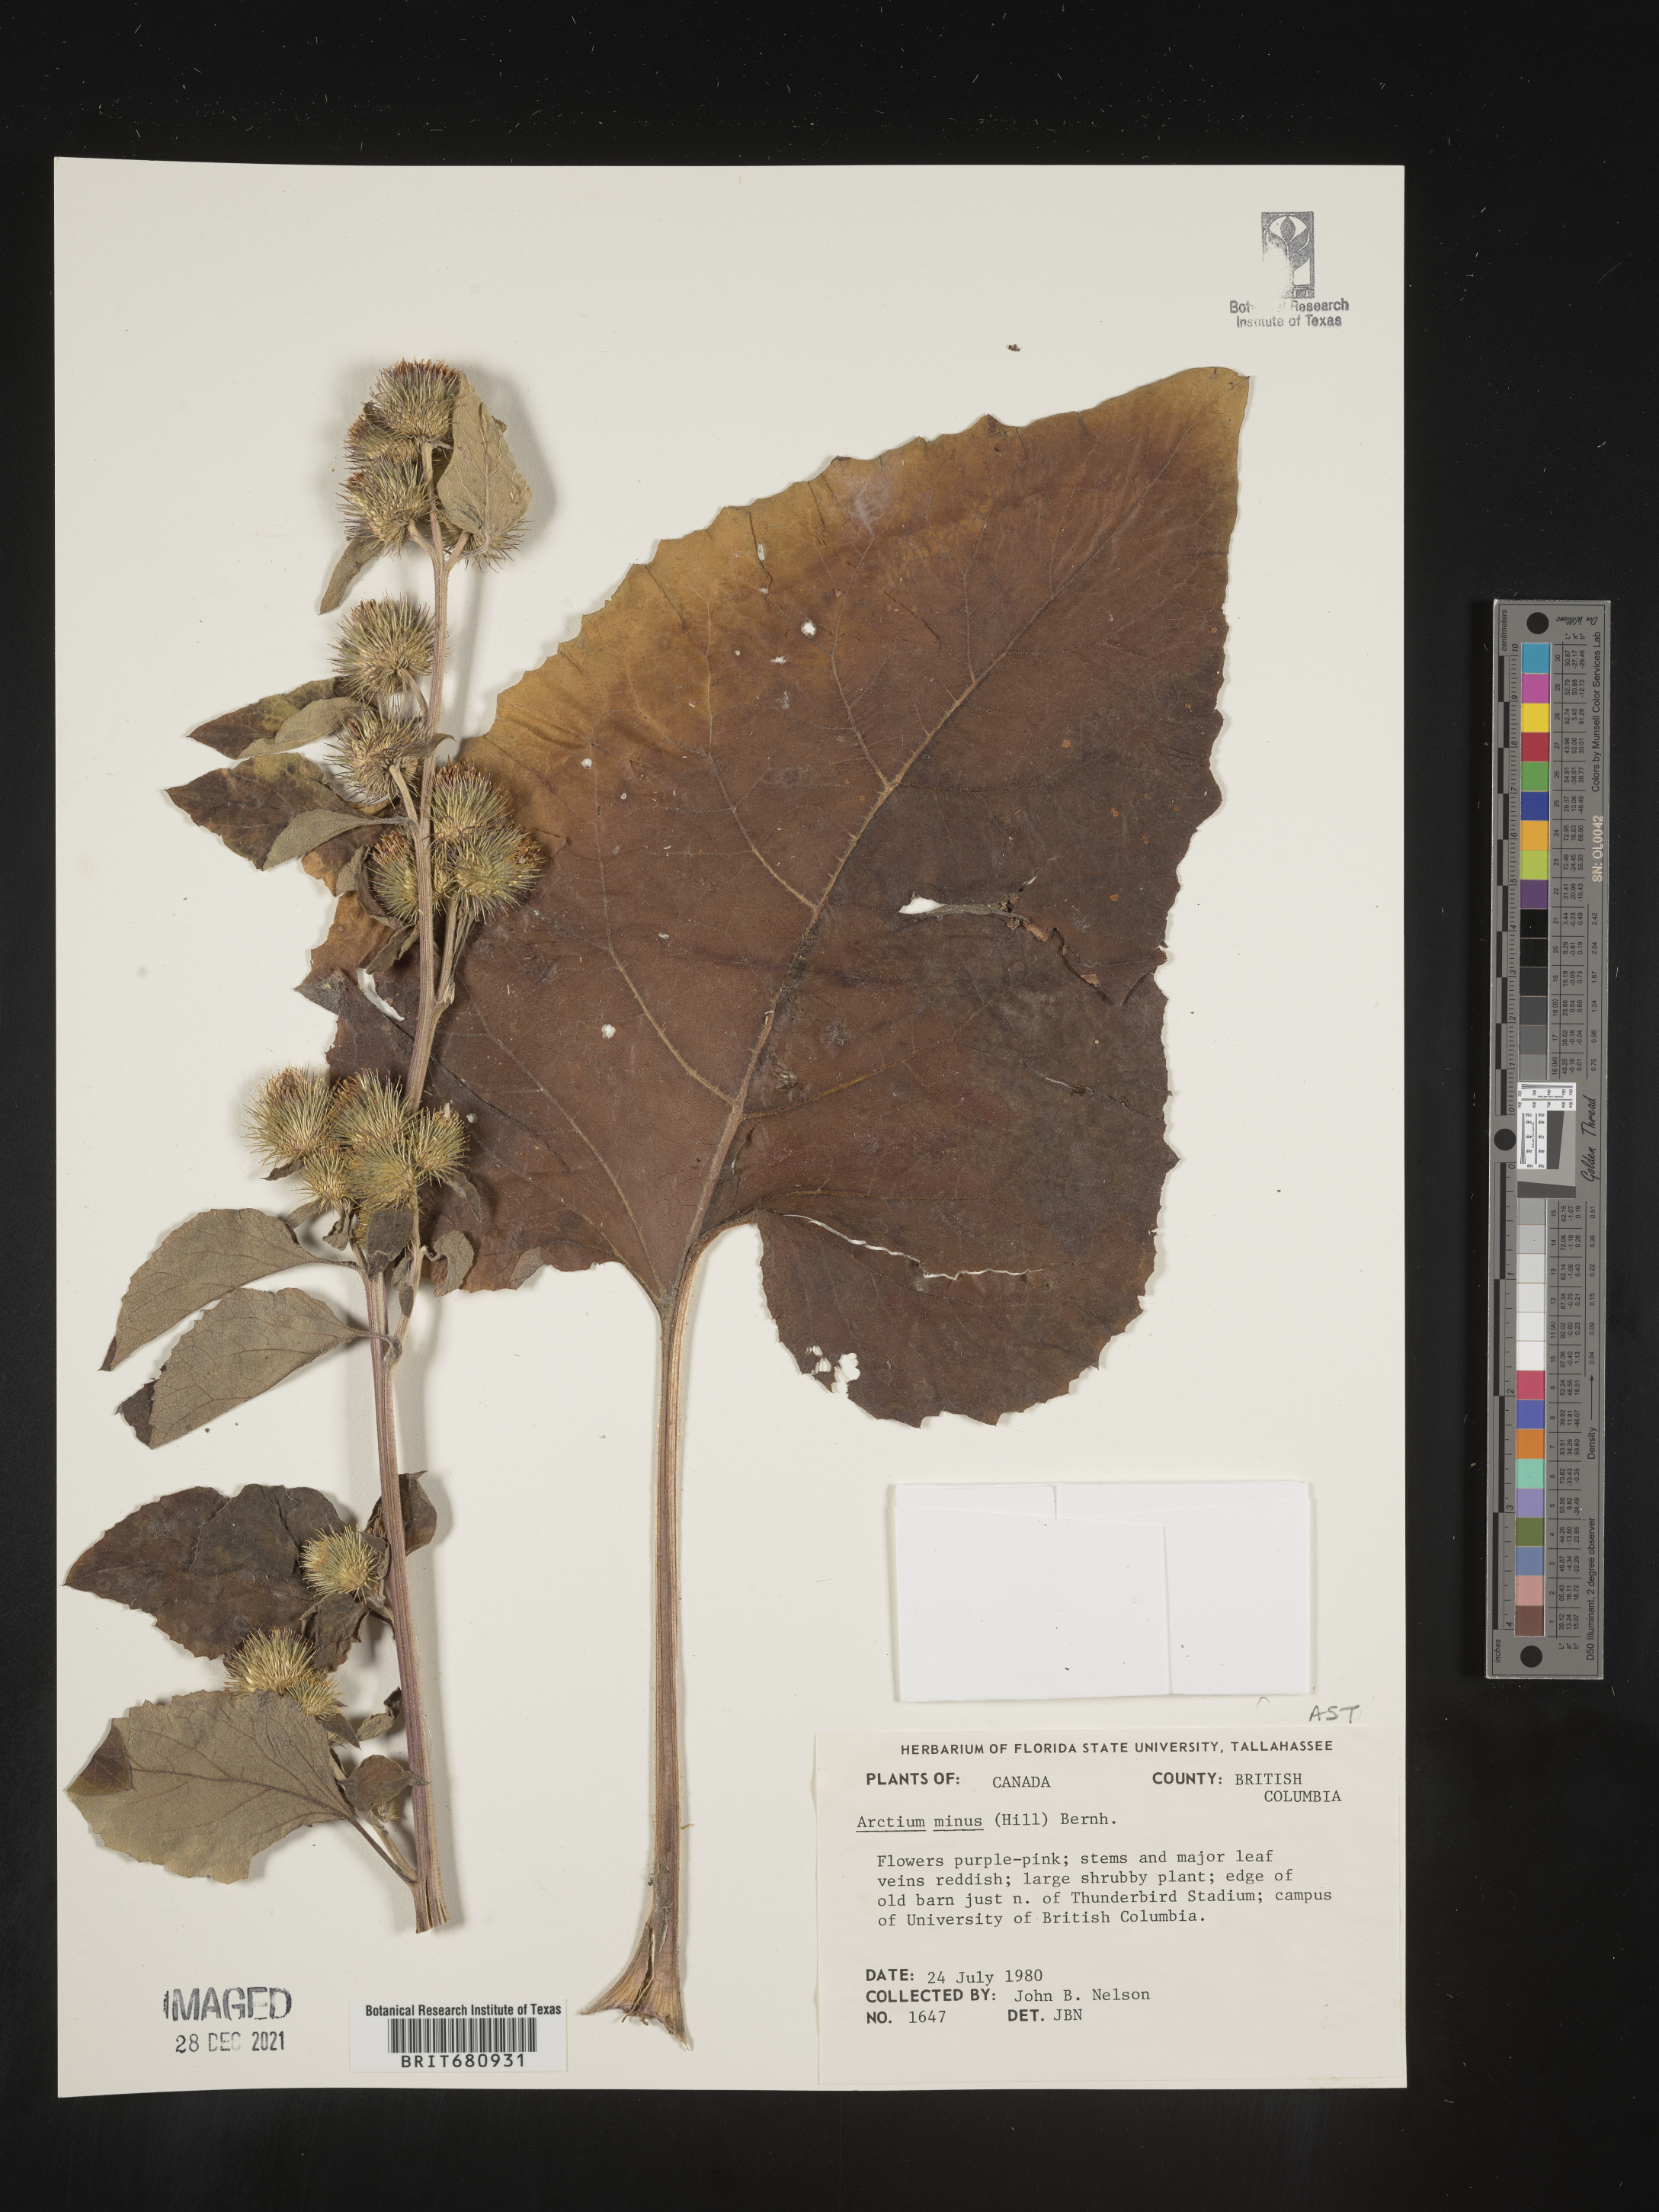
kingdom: Plantae
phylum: Tracheophyta
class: Magnoliopsida
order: Asterales
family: Asteraceae
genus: Arctium
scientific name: Arctium minus
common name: Lesser burdock
